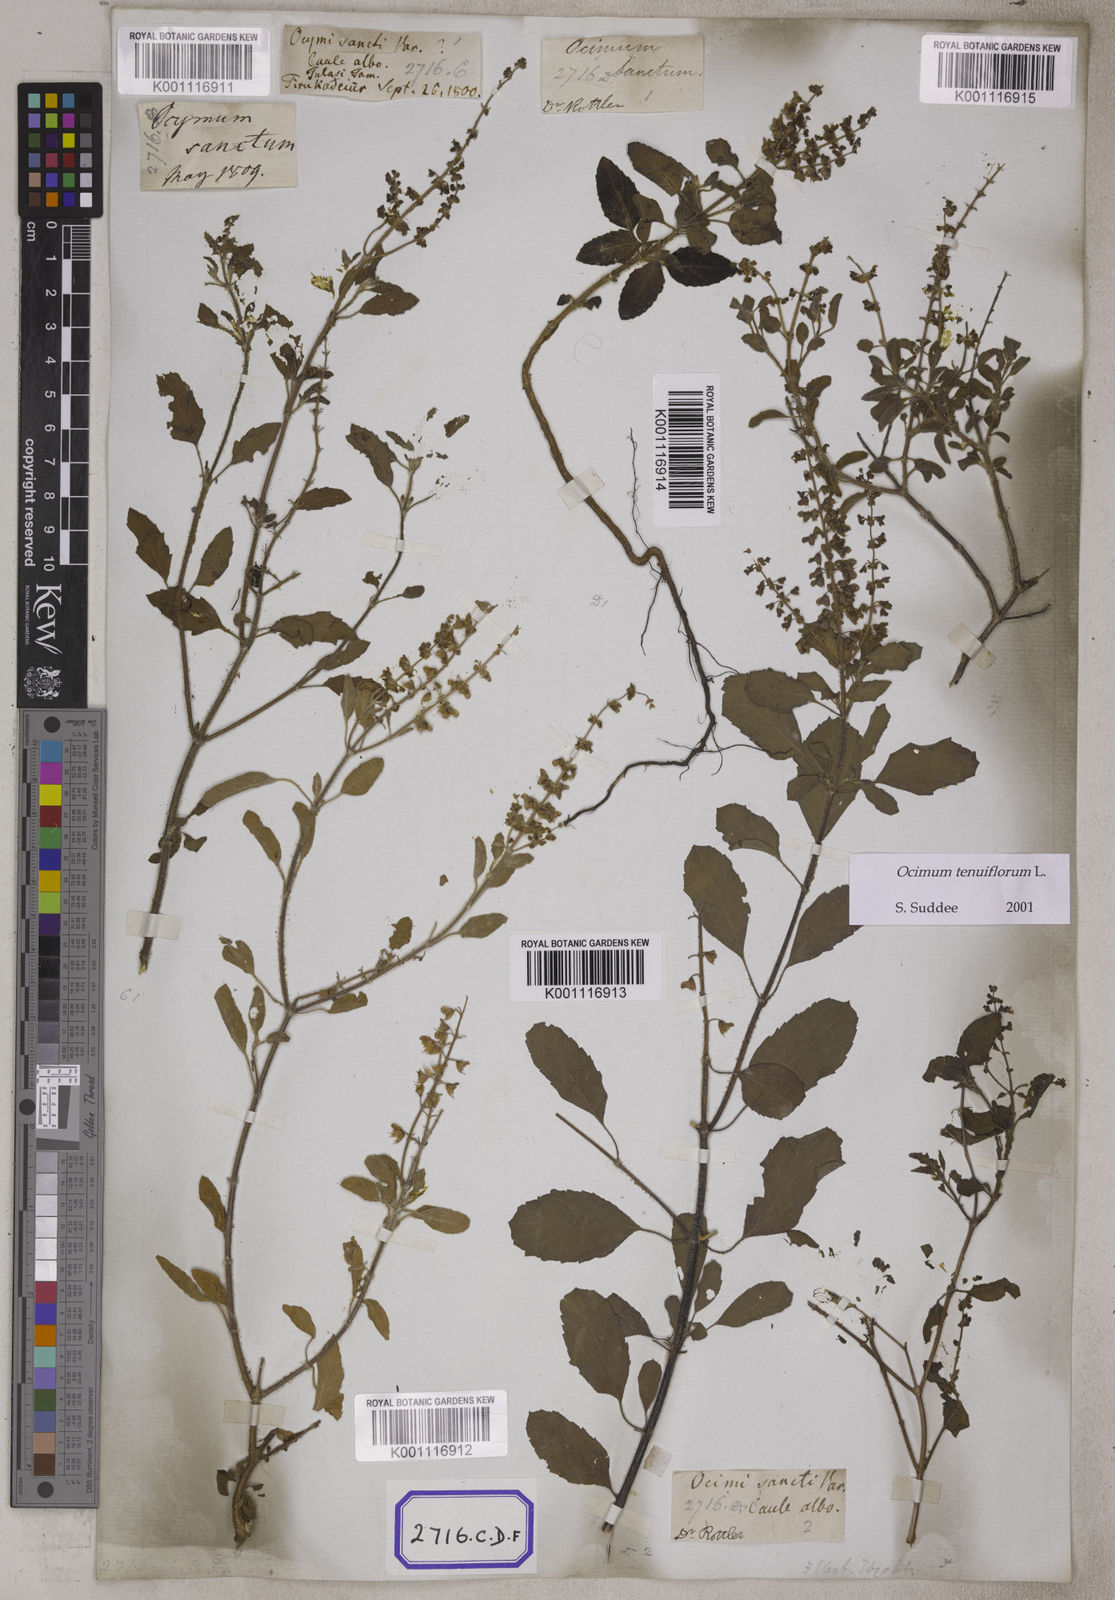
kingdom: Plantae
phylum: Tracheophyta
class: Magnoliopsida
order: Lamiales
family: Lamiaceae
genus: Ocimum
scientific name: Ocimum tenuiflorum
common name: Sacred basil
